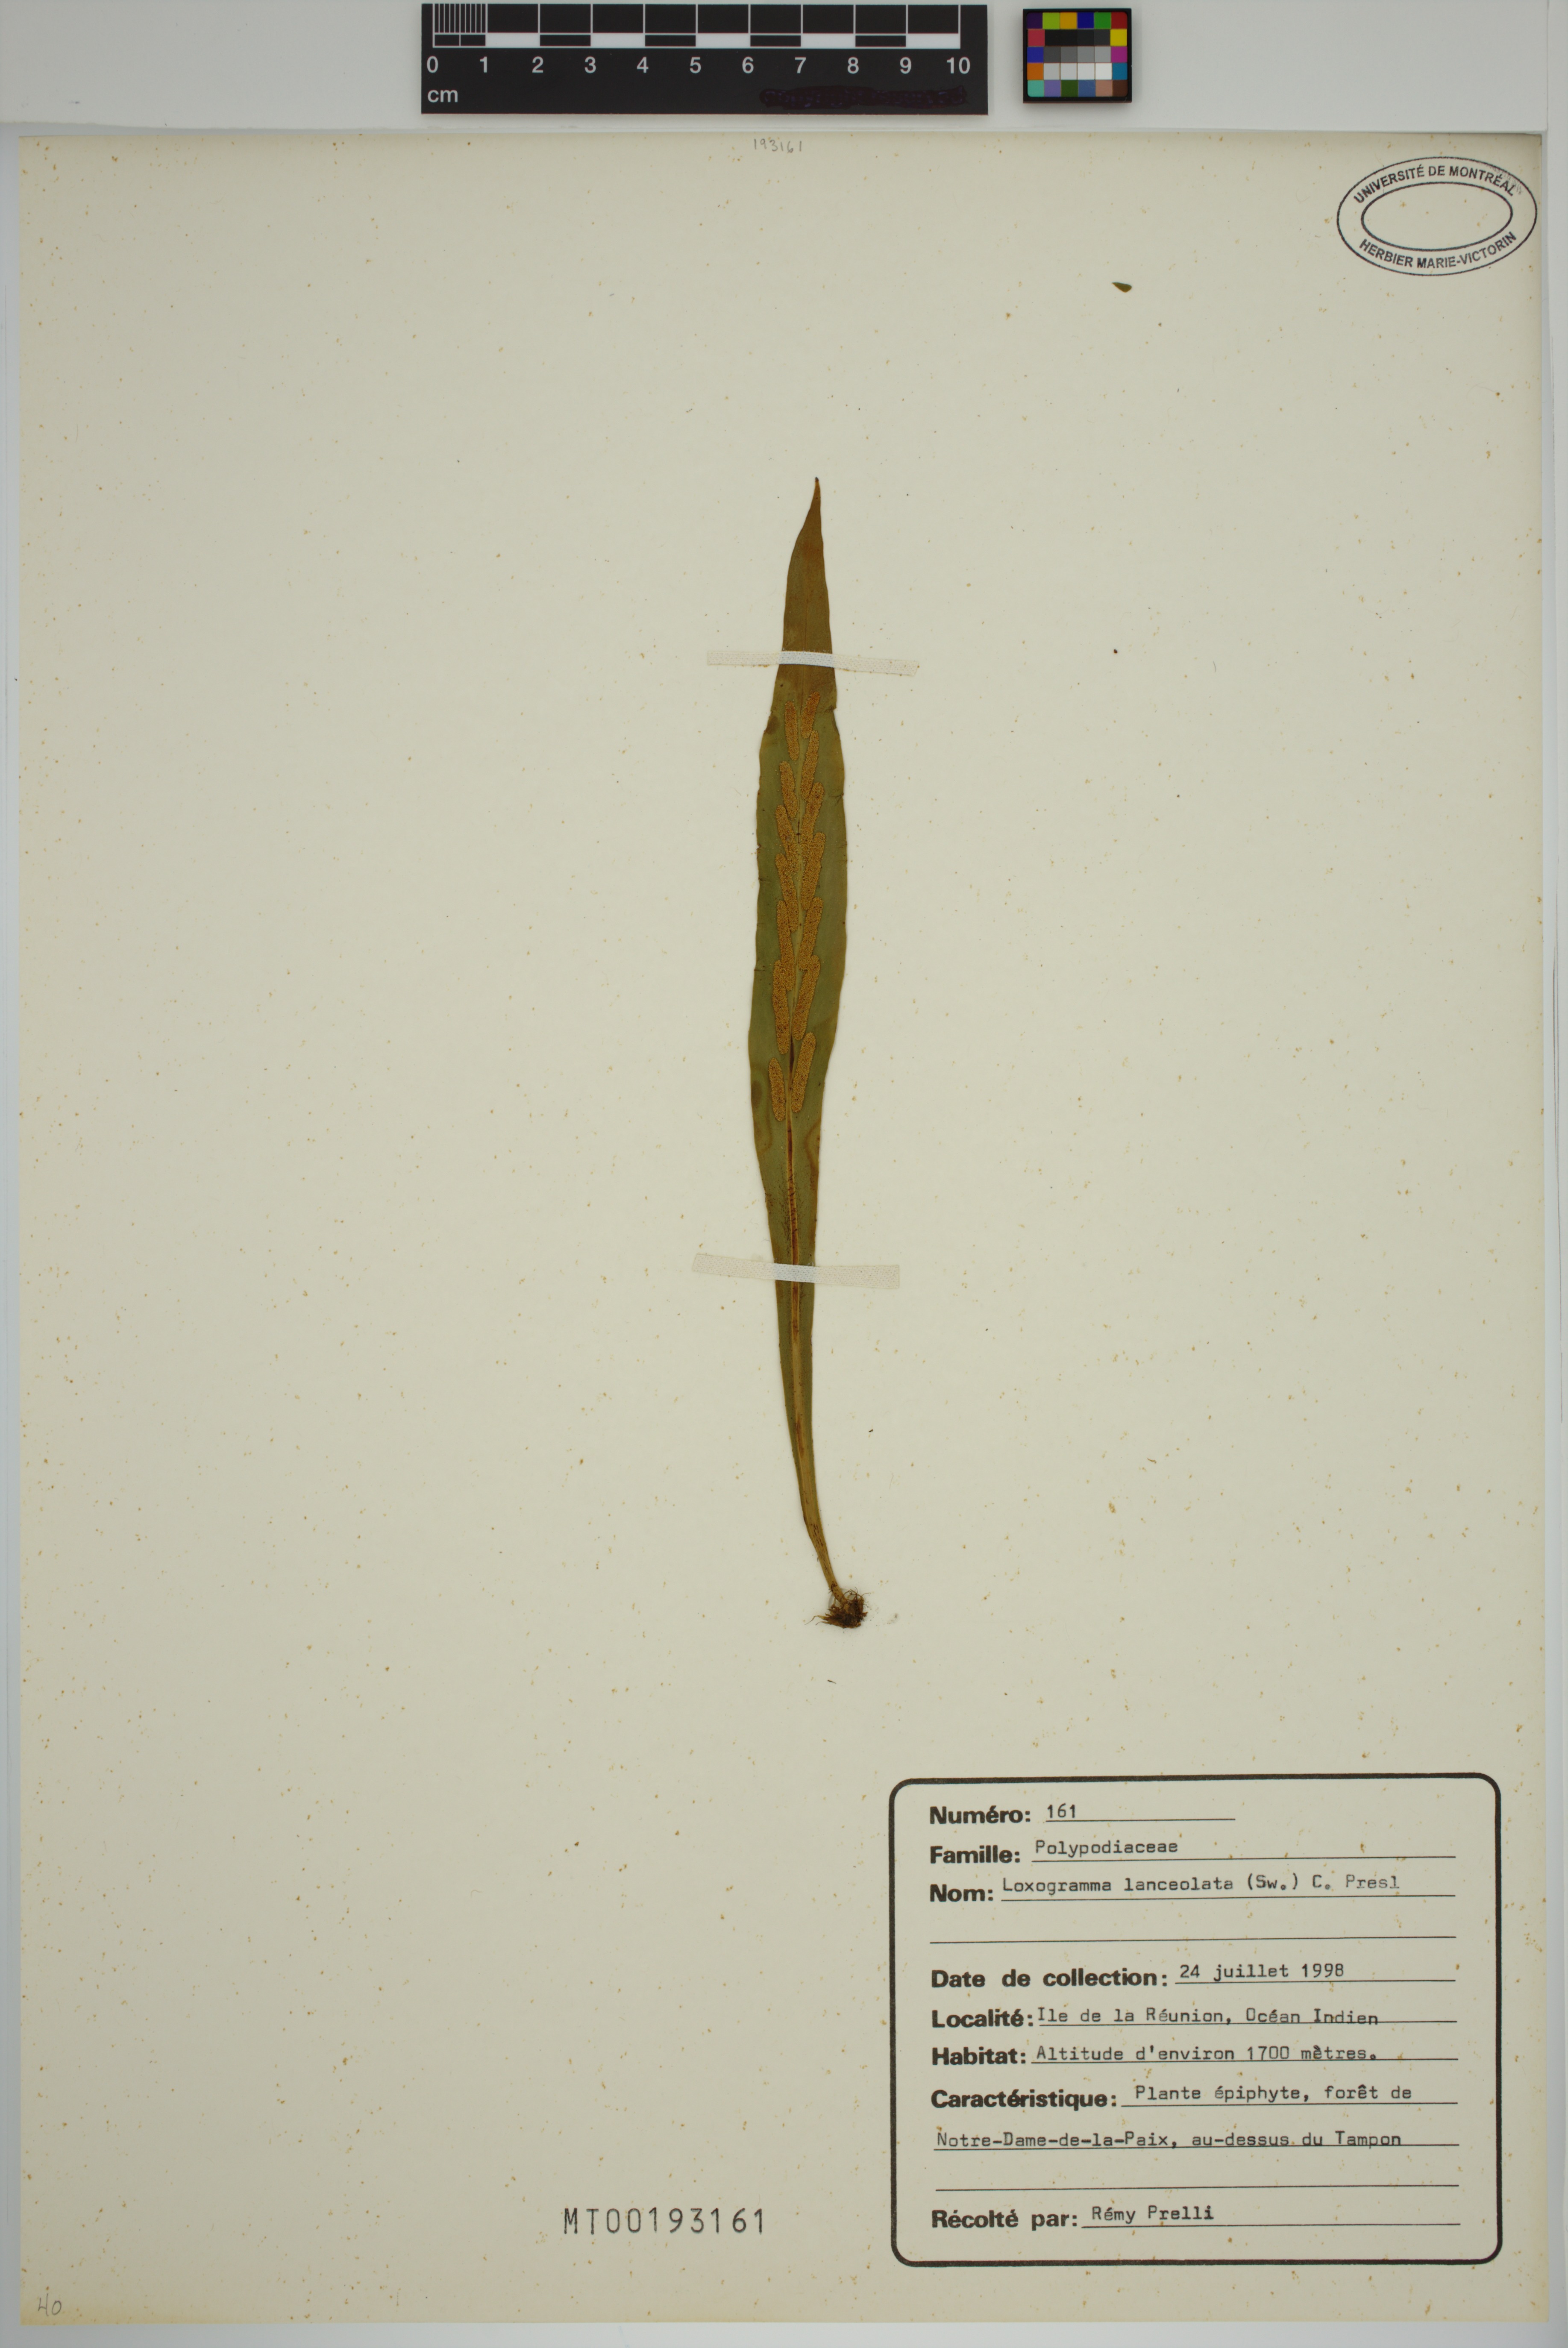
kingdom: Plantae
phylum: Tracheophyta
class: Polypodiopsida
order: Polypodiales
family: Polypodiaceae
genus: Loxogramme
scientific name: Loxogramme lanceolata
